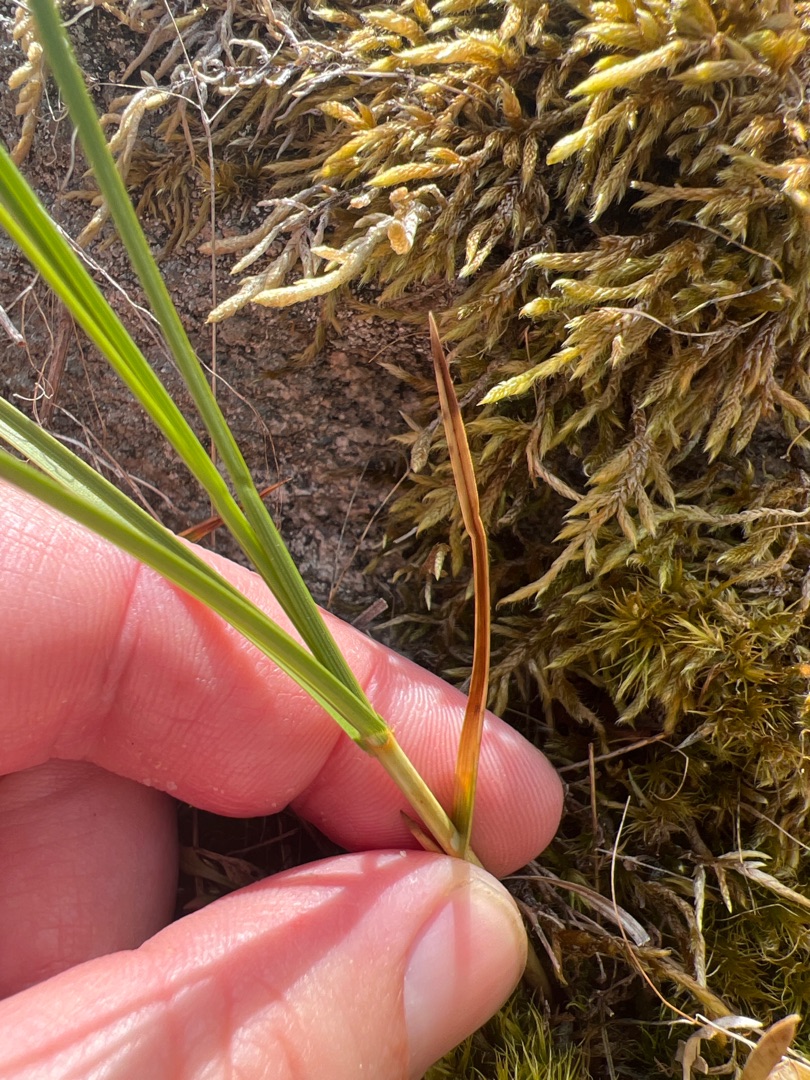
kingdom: Plantae
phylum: Tracheophyta
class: Liliopsida
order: Poales
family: Cyperaceae
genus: Carex
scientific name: Carex arenaria
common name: Sand-star
